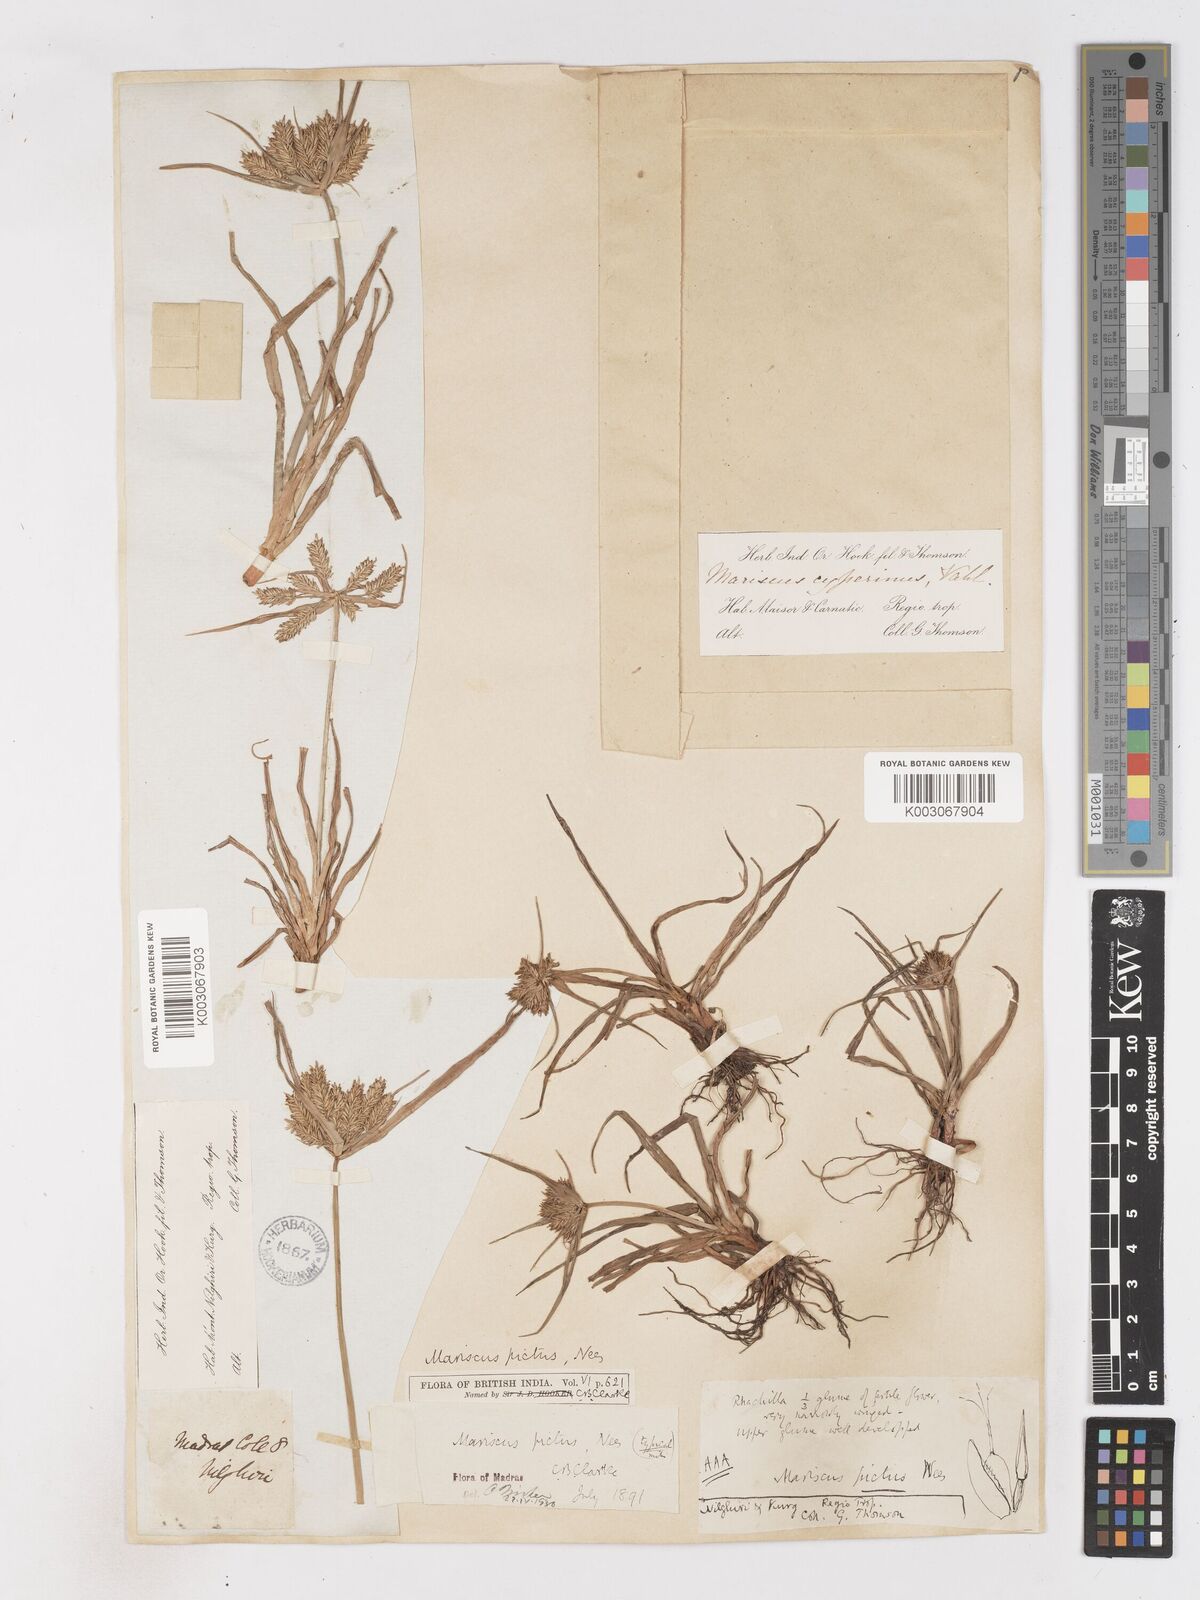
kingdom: Plantae
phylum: Tracheophyta
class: Liliopsida
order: Poales
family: Cyperaceae
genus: Cyperus
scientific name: Cyperus cyperinus
